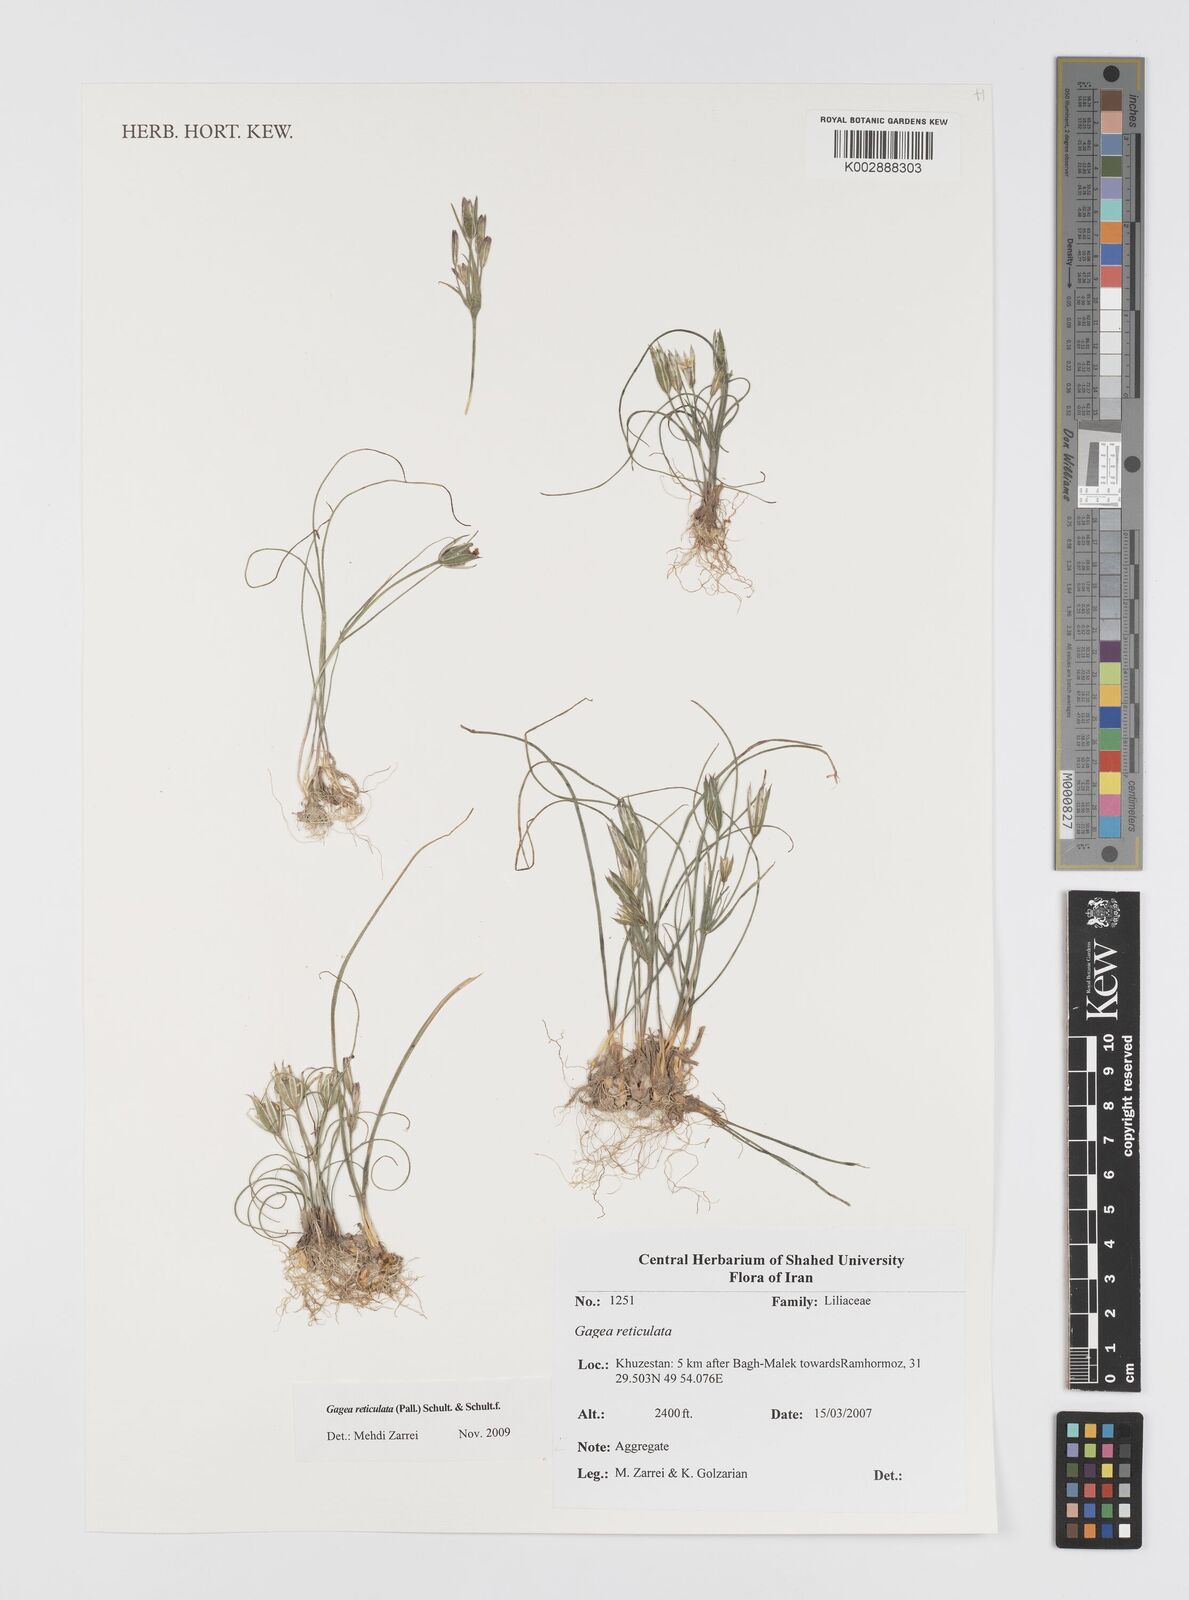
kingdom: Plantae
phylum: Tracheophyta
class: Liliopsida
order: Liliales
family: Liliaceae
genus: Gagea
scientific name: Gagea reticulata
